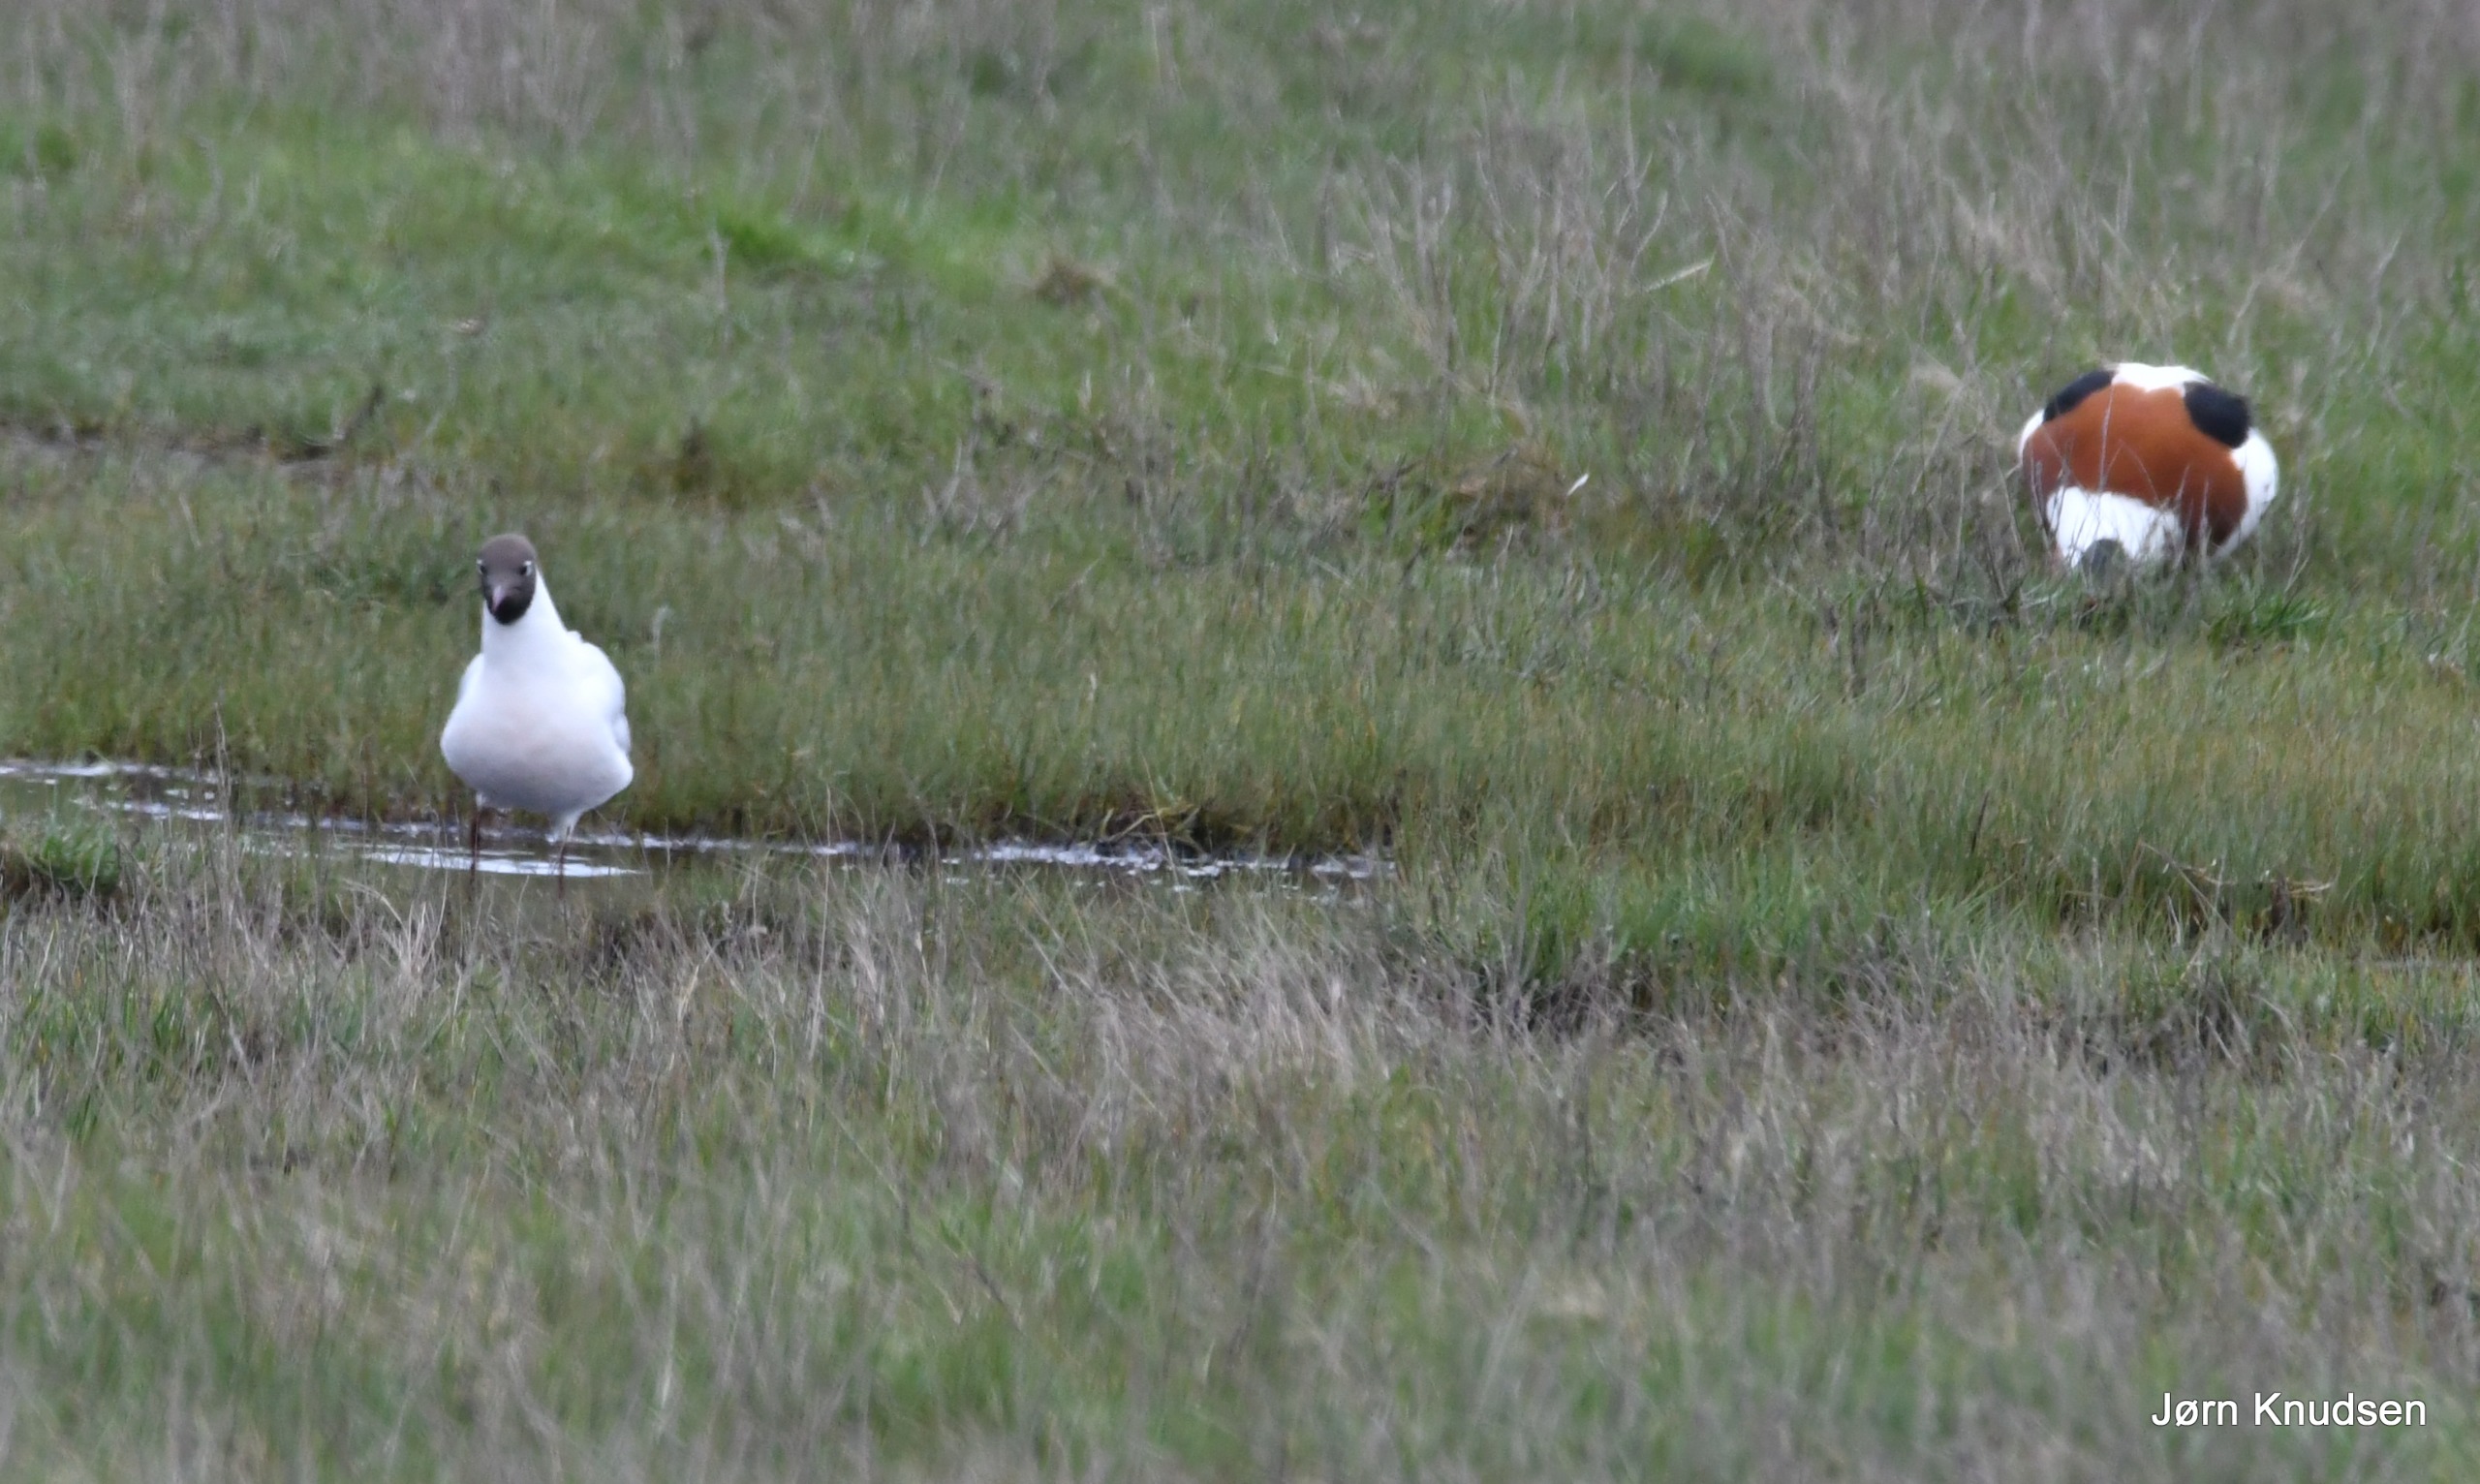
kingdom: Animalia
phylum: Chordata
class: Aves
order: Charadriiformes
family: Laridae
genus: Chroicocephalus
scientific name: Chroicocephalus ridibundus
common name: Hættemåge
